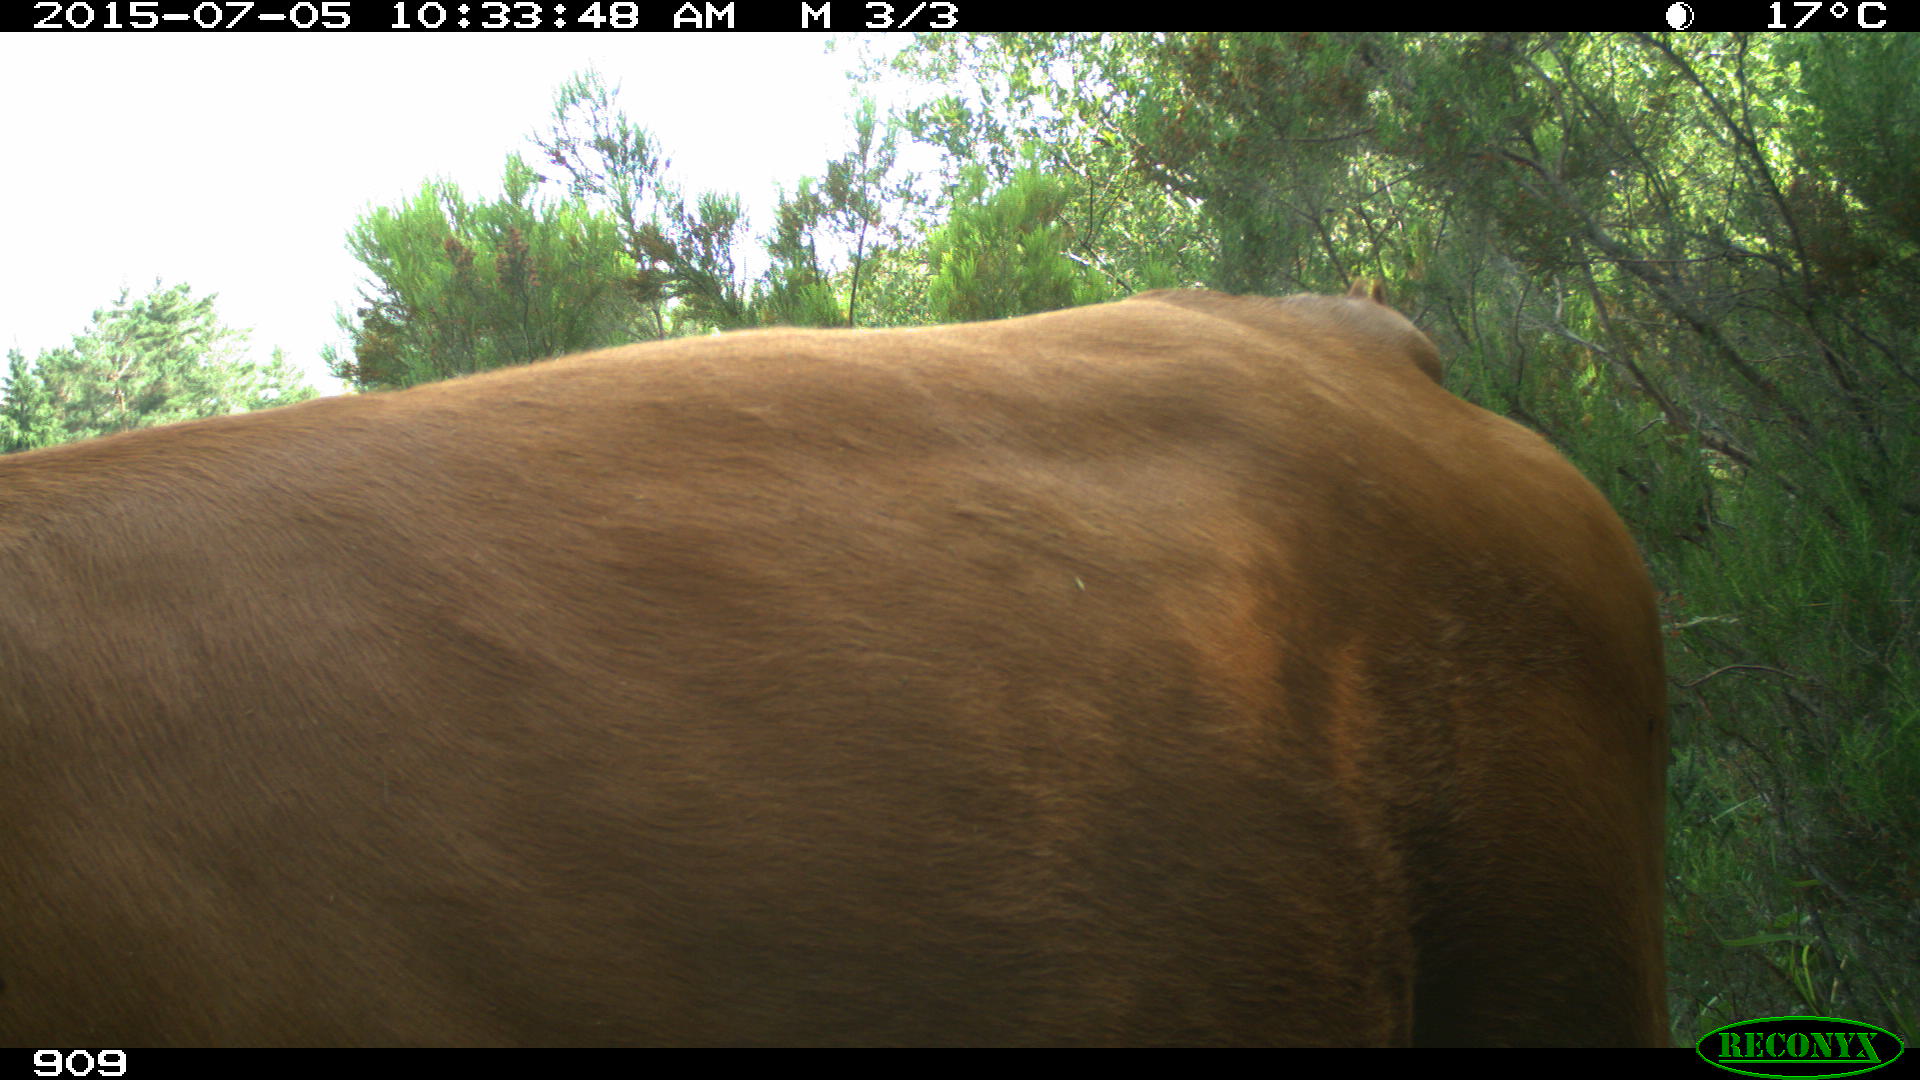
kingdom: Animalia
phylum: Chordata
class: Mammalia
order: Artiodactyla
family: Bovidae
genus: Bos
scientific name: Bos taurus
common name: Domesticated cattle
